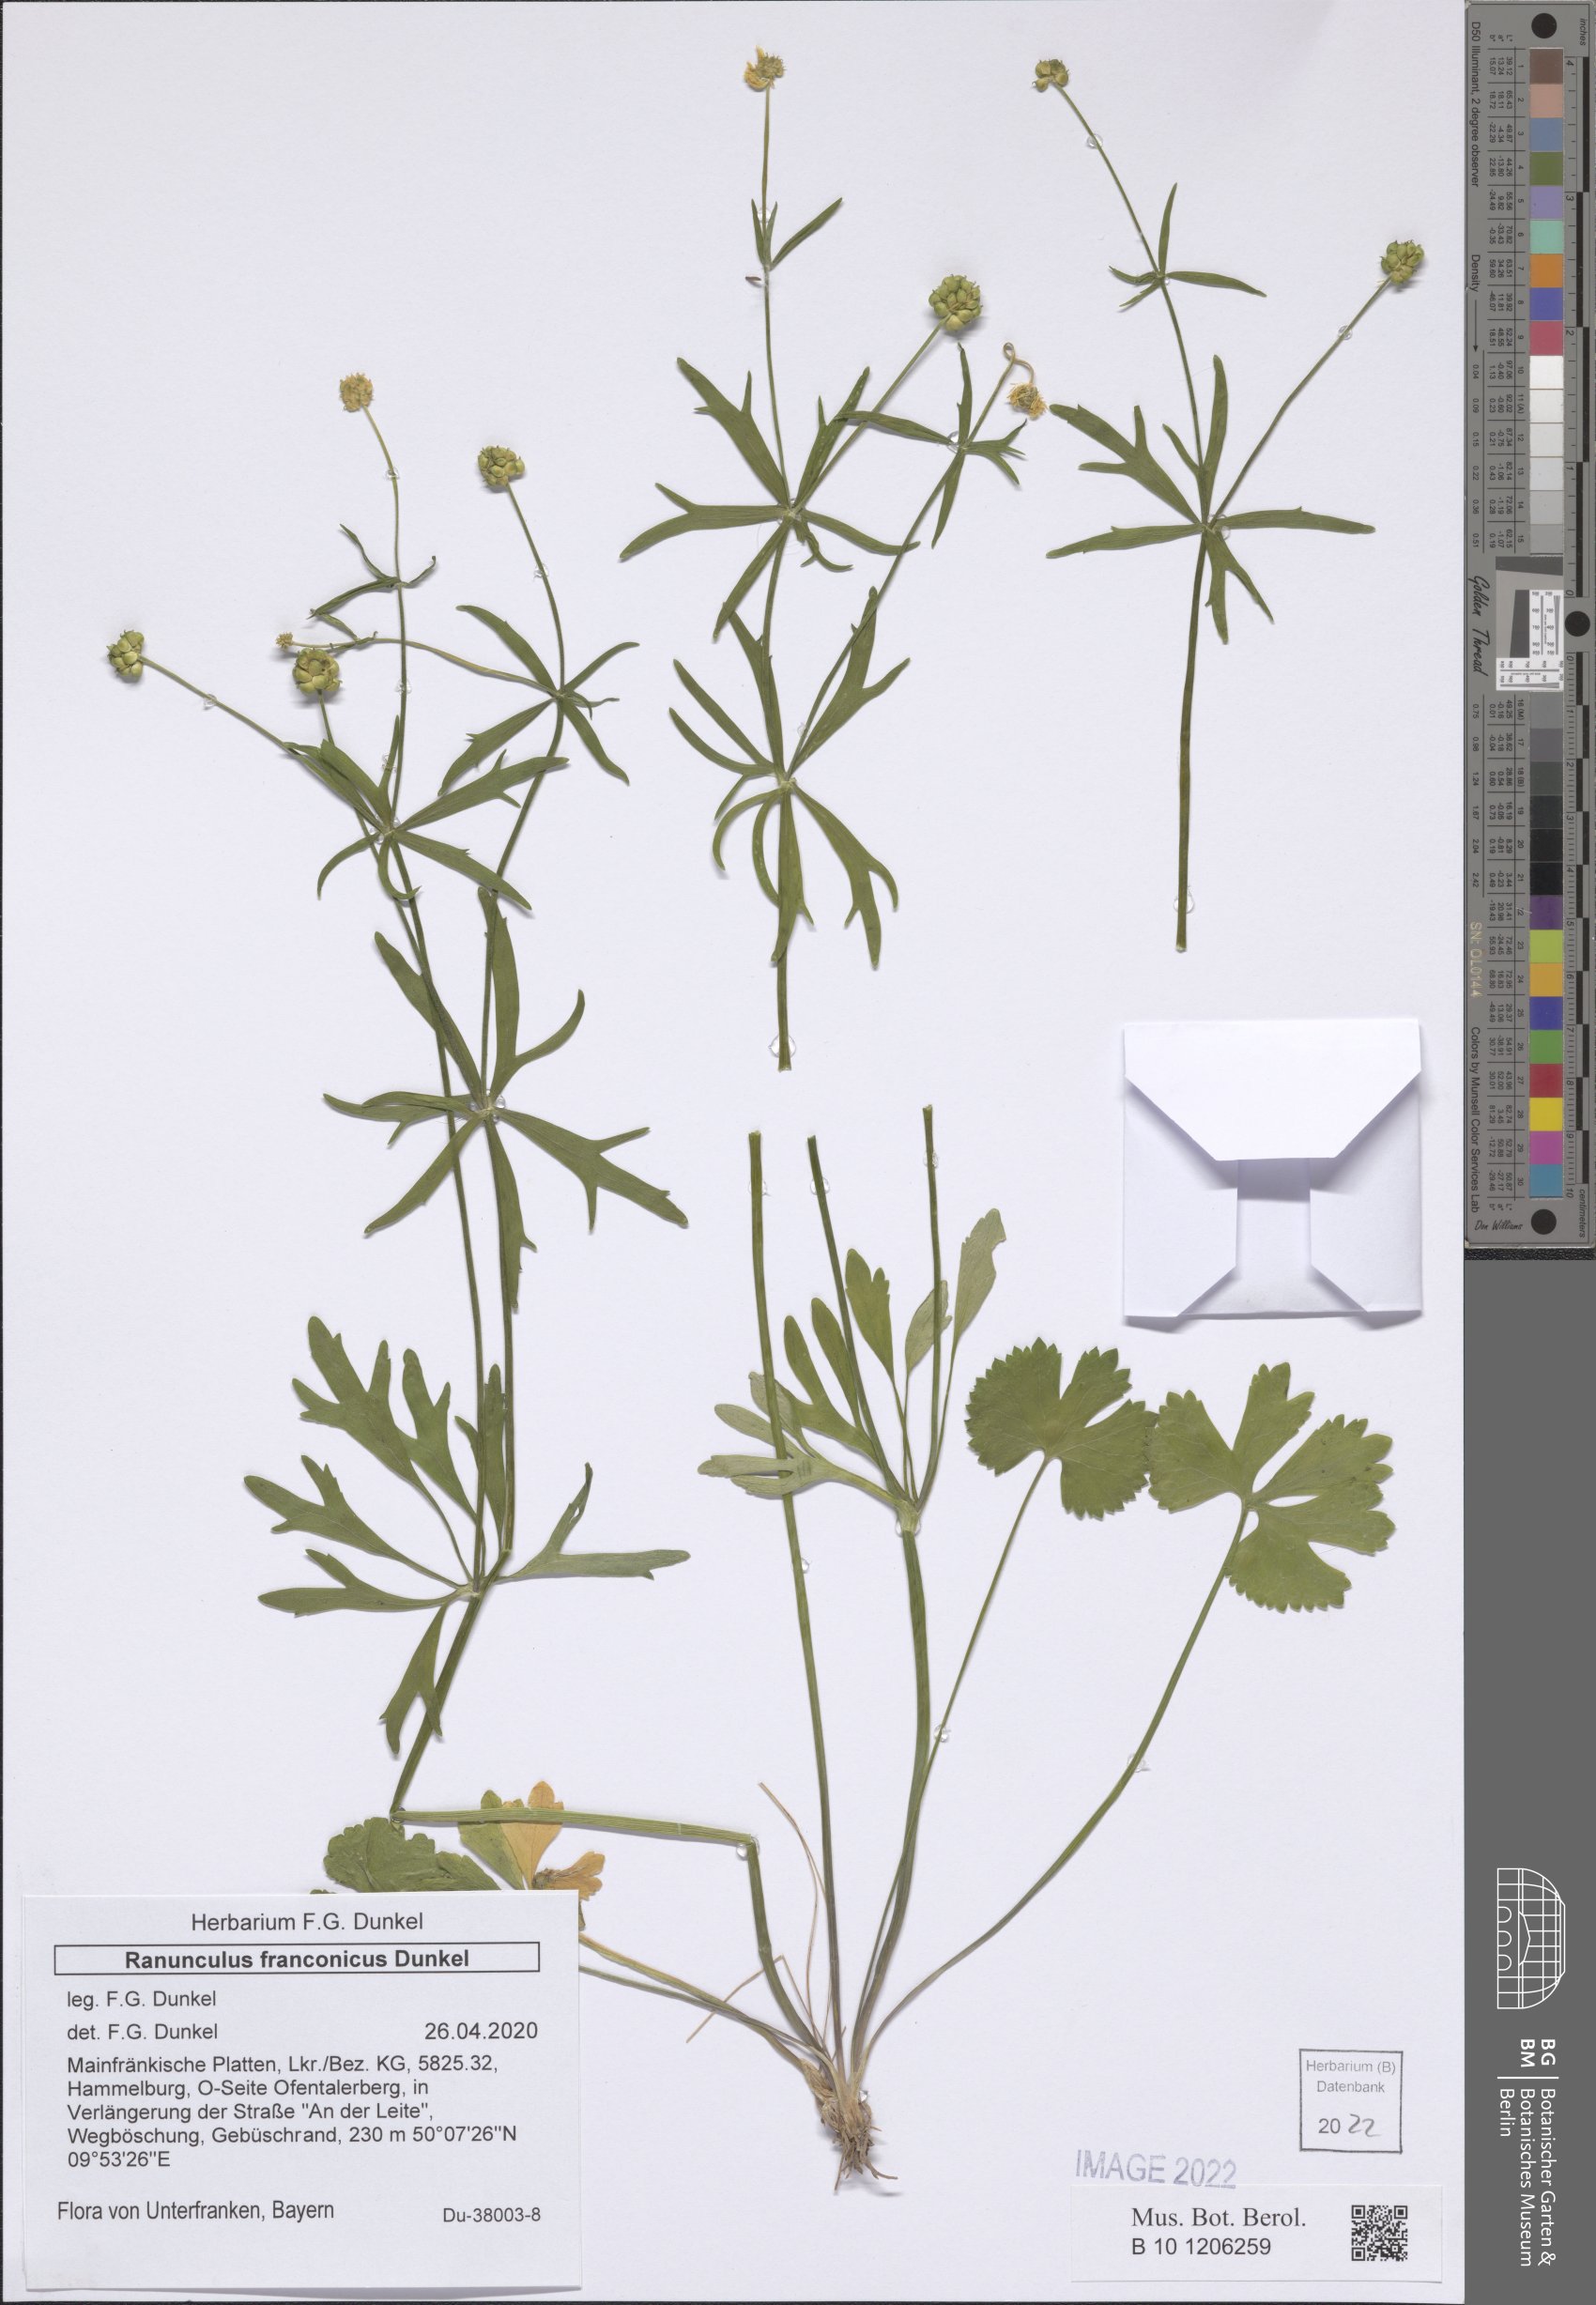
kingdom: Plantae
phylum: Tracheophyta
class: Magnoliopsida
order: Ranunculales
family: Ranunculaceae
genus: Ranunculus
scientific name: Ranunculus franconicus
